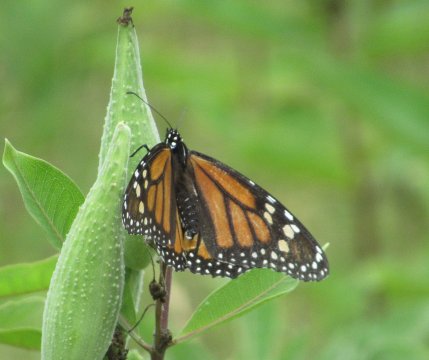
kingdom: Animalia
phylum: Arthropoda
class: Insecta
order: Lepidoptera
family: Nymphalidae
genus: Danaus
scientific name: Danaus plexippus
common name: Monarch
